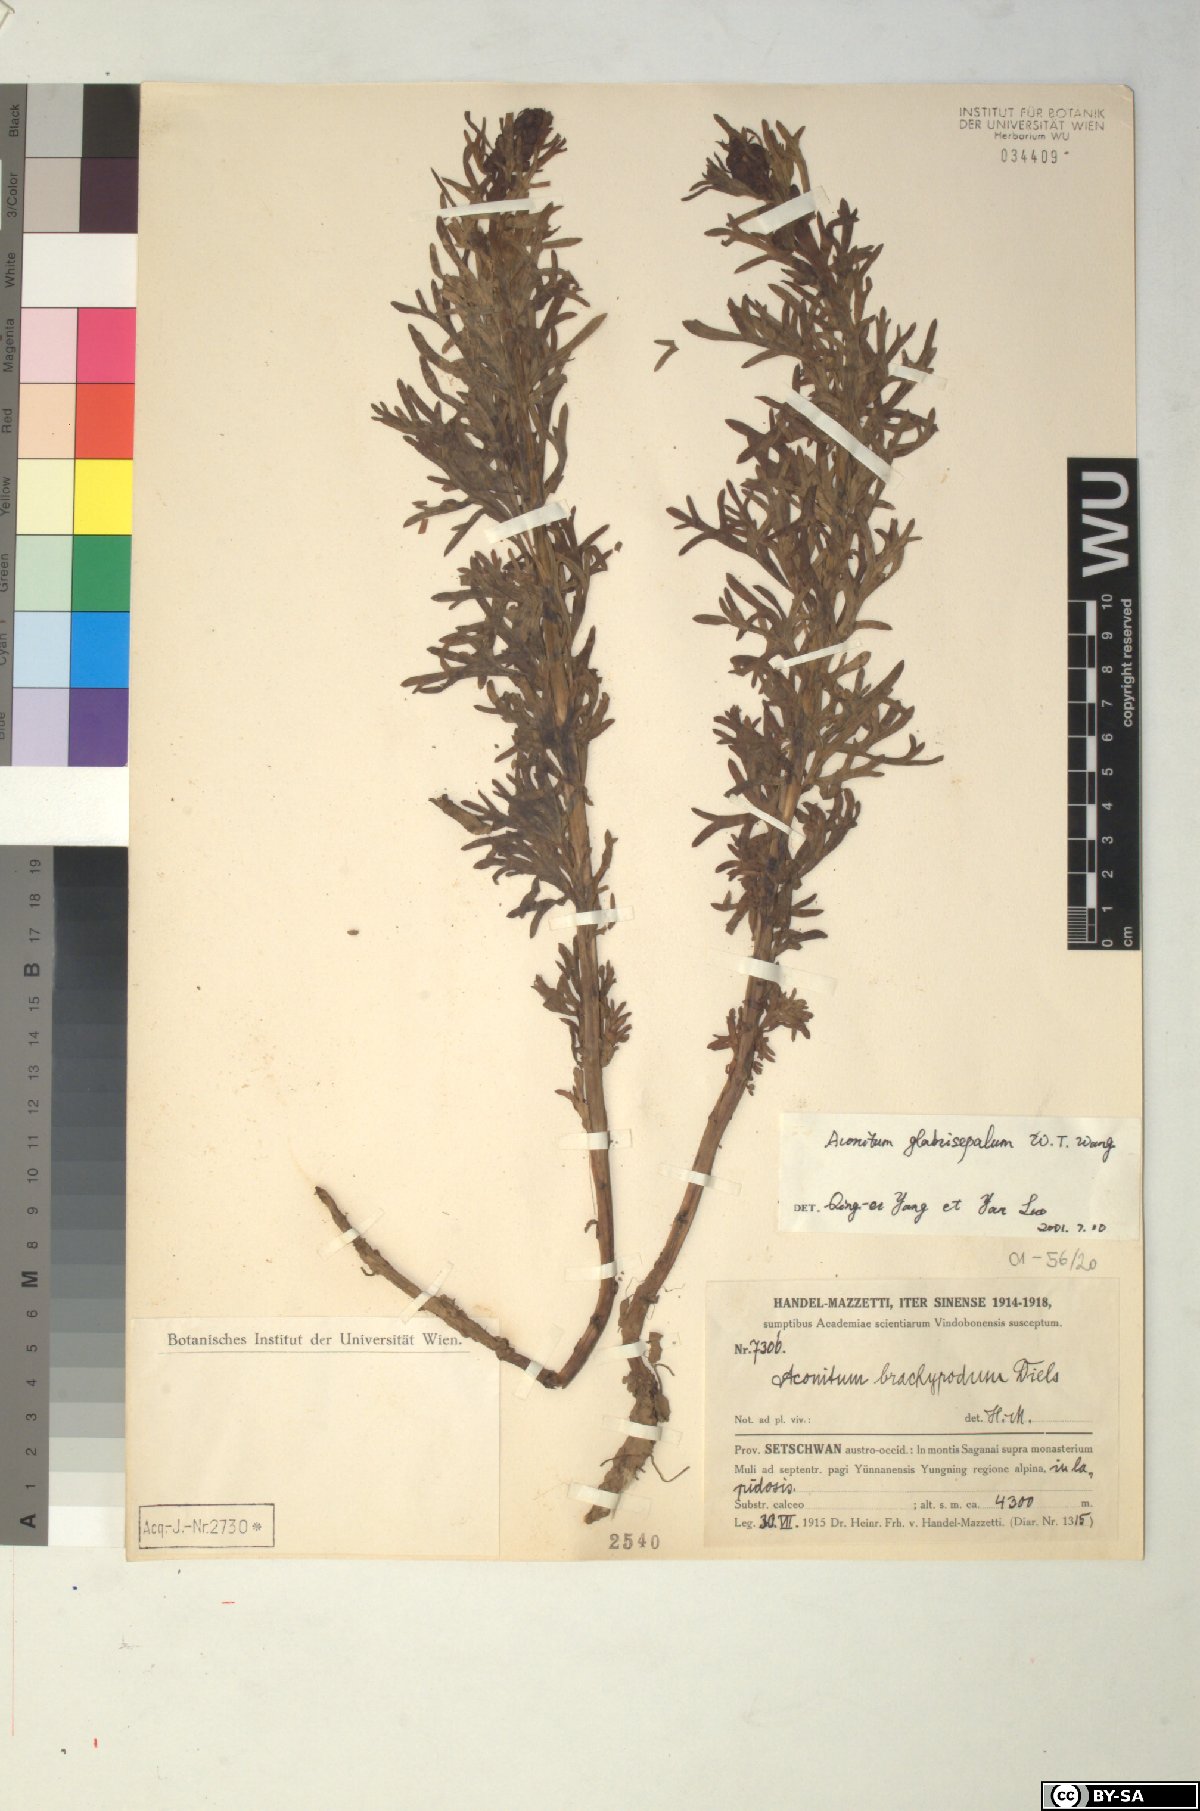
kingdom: Plantae
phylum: Tracheophyta
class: Magnoliopsida
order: Ranunculales
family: Ranunculaceae
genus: Aconitum
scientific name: Aconitum glabrisepalum
